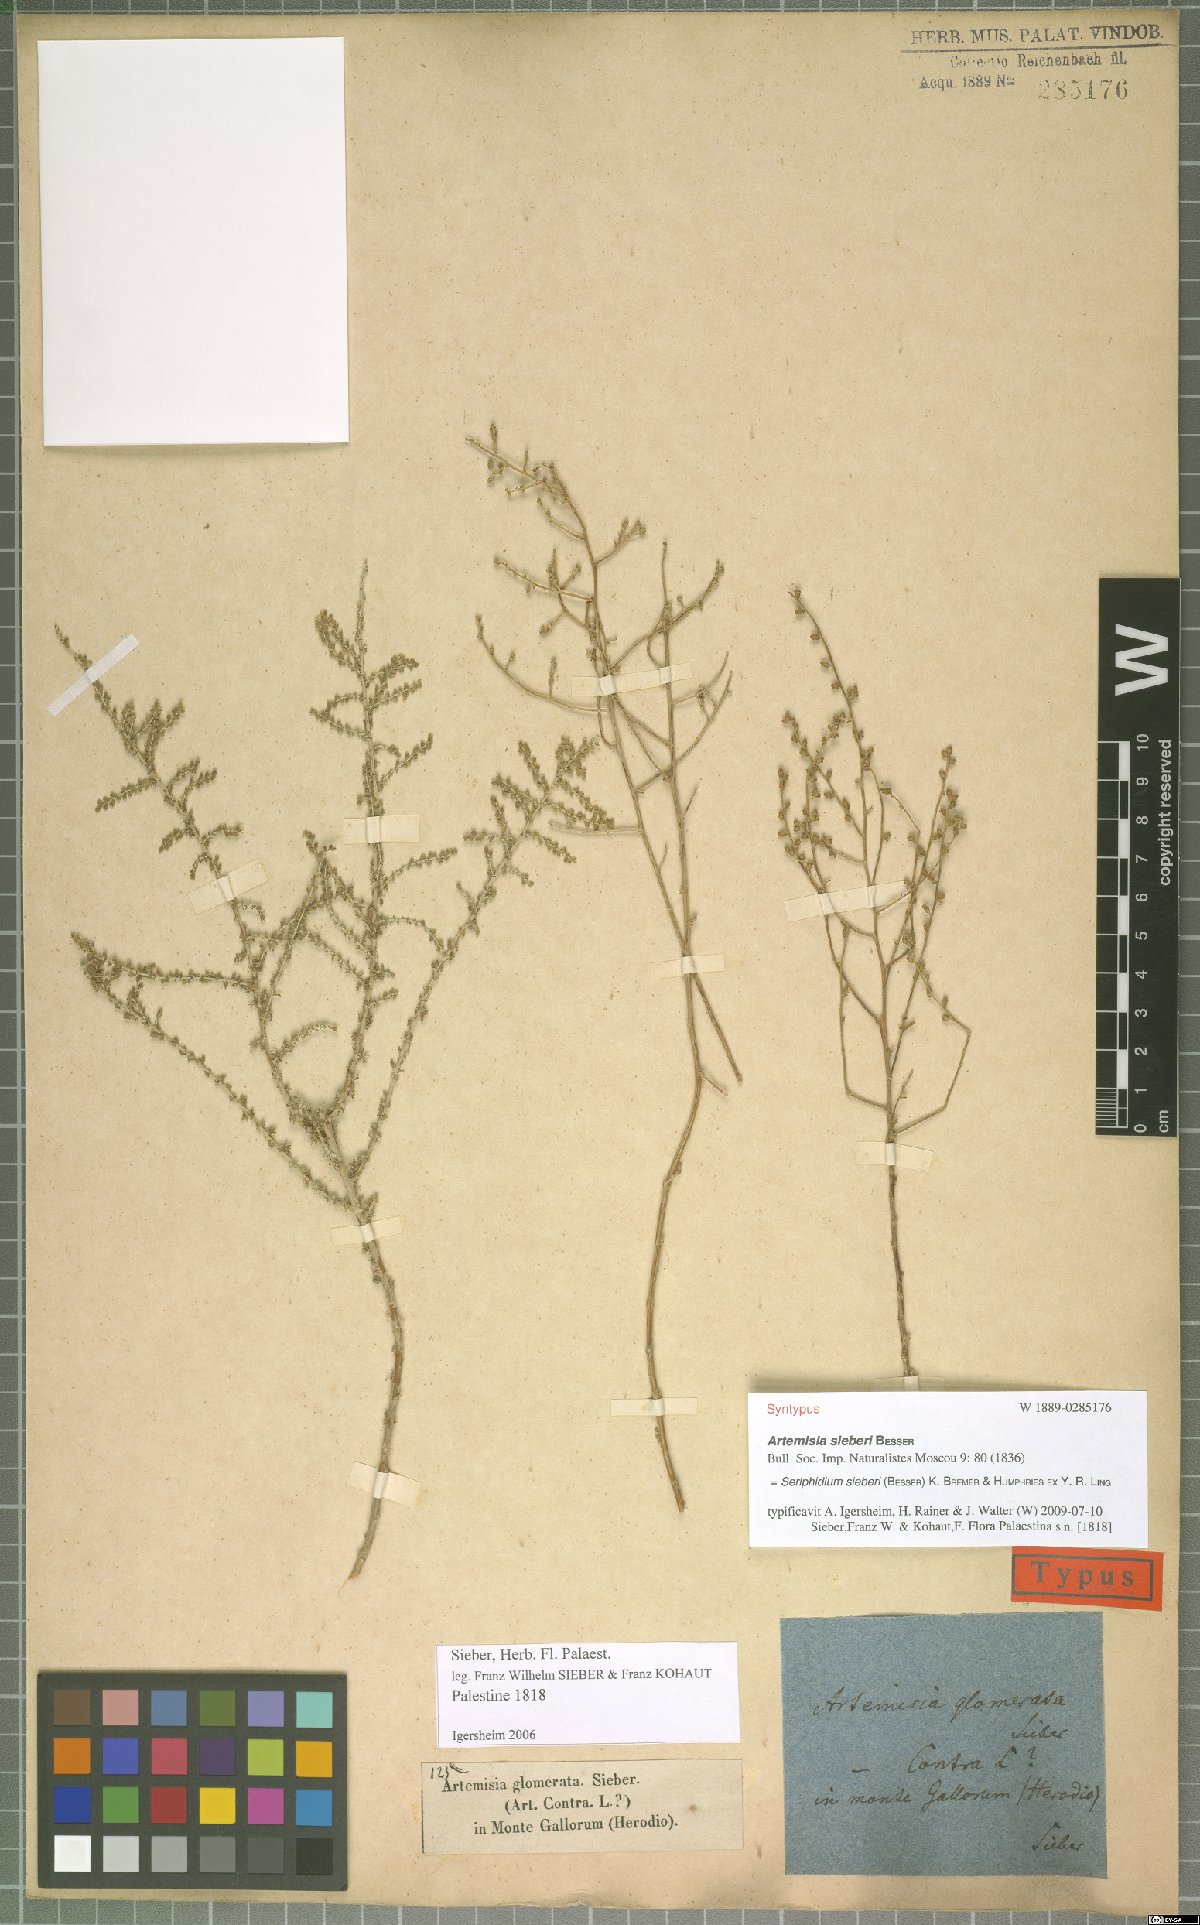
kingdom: Plantae
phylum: Tracheophyta
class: Magnoliopsida
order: Asterales
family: Asteraceae
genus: Artemisia
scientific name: Artemisia sieberi
